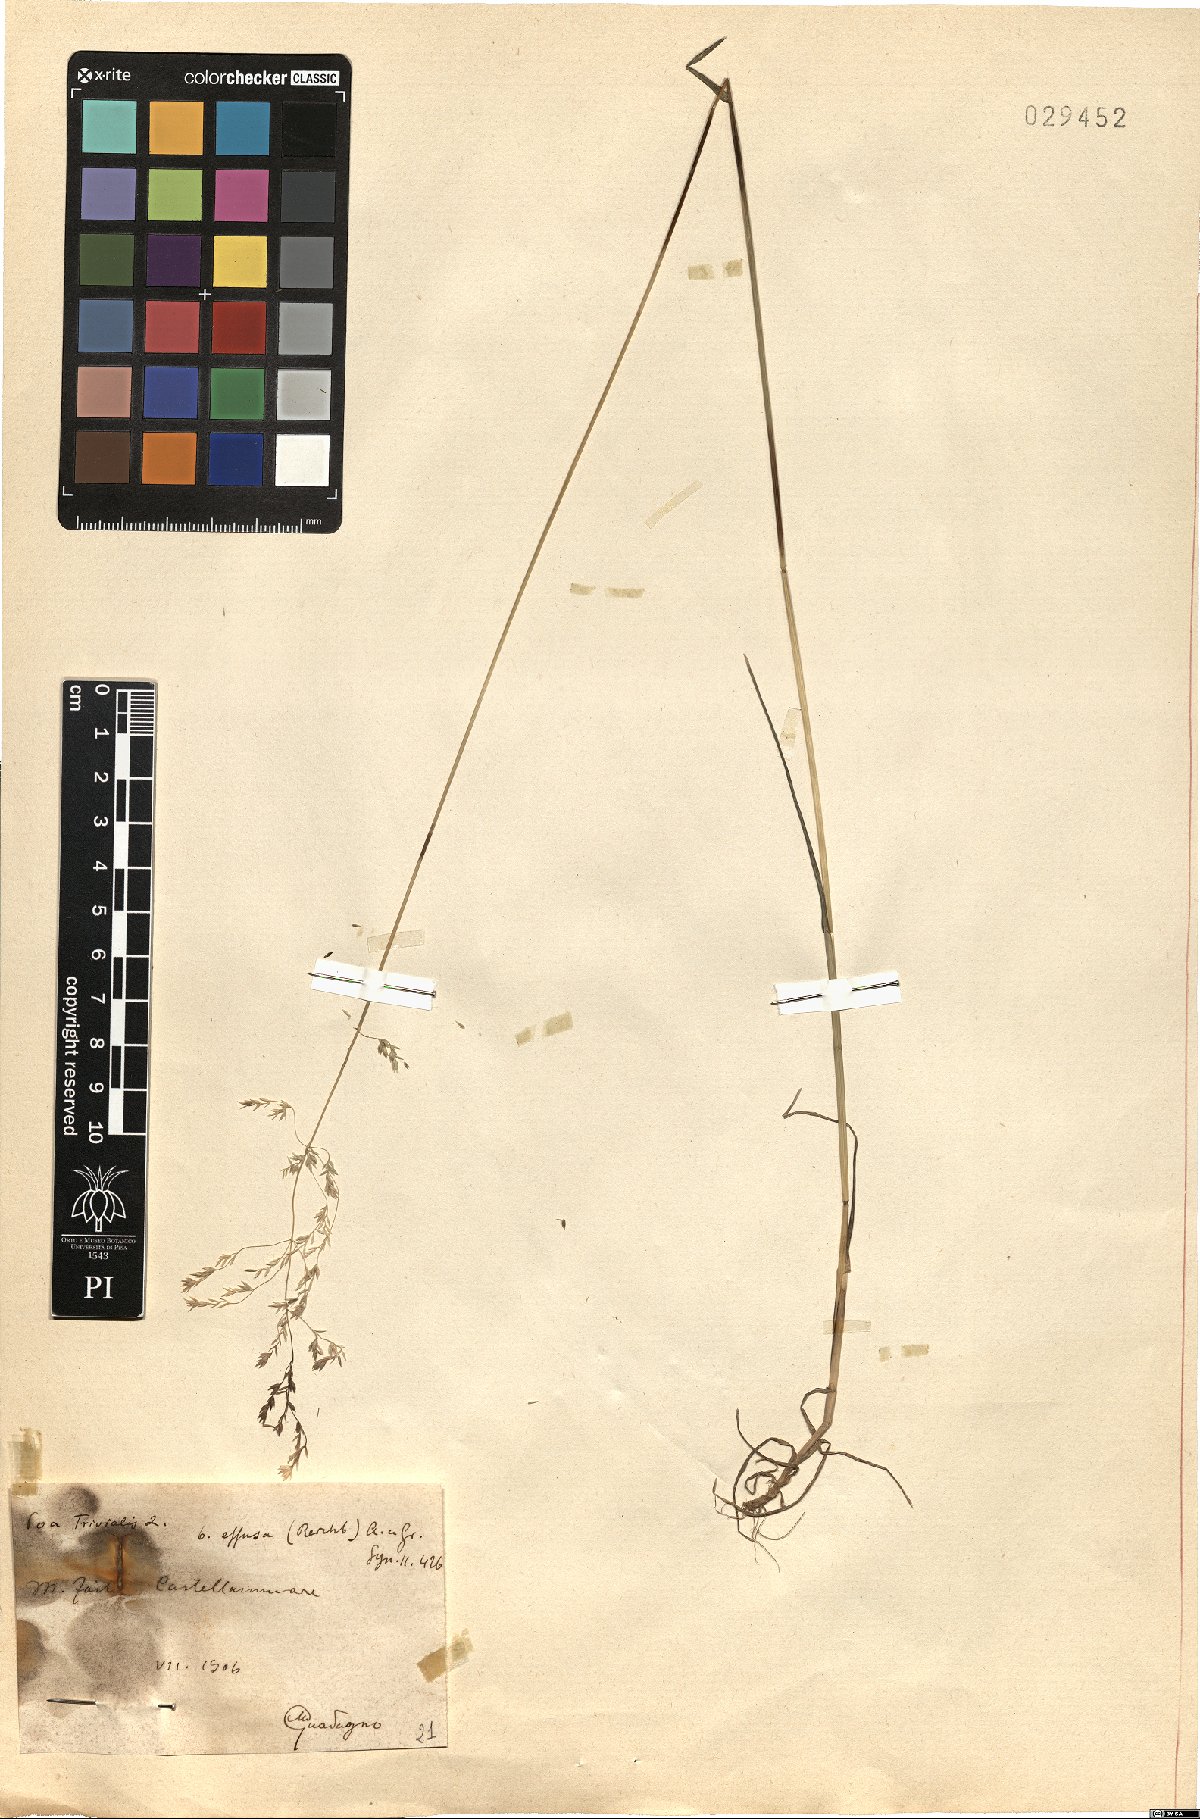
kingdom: Plantae
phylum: Tracheophyta
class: Liliopsida
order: Poales
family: Poaceae
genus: Poa
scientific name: Poa trivialis
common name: Rough bluegrass
